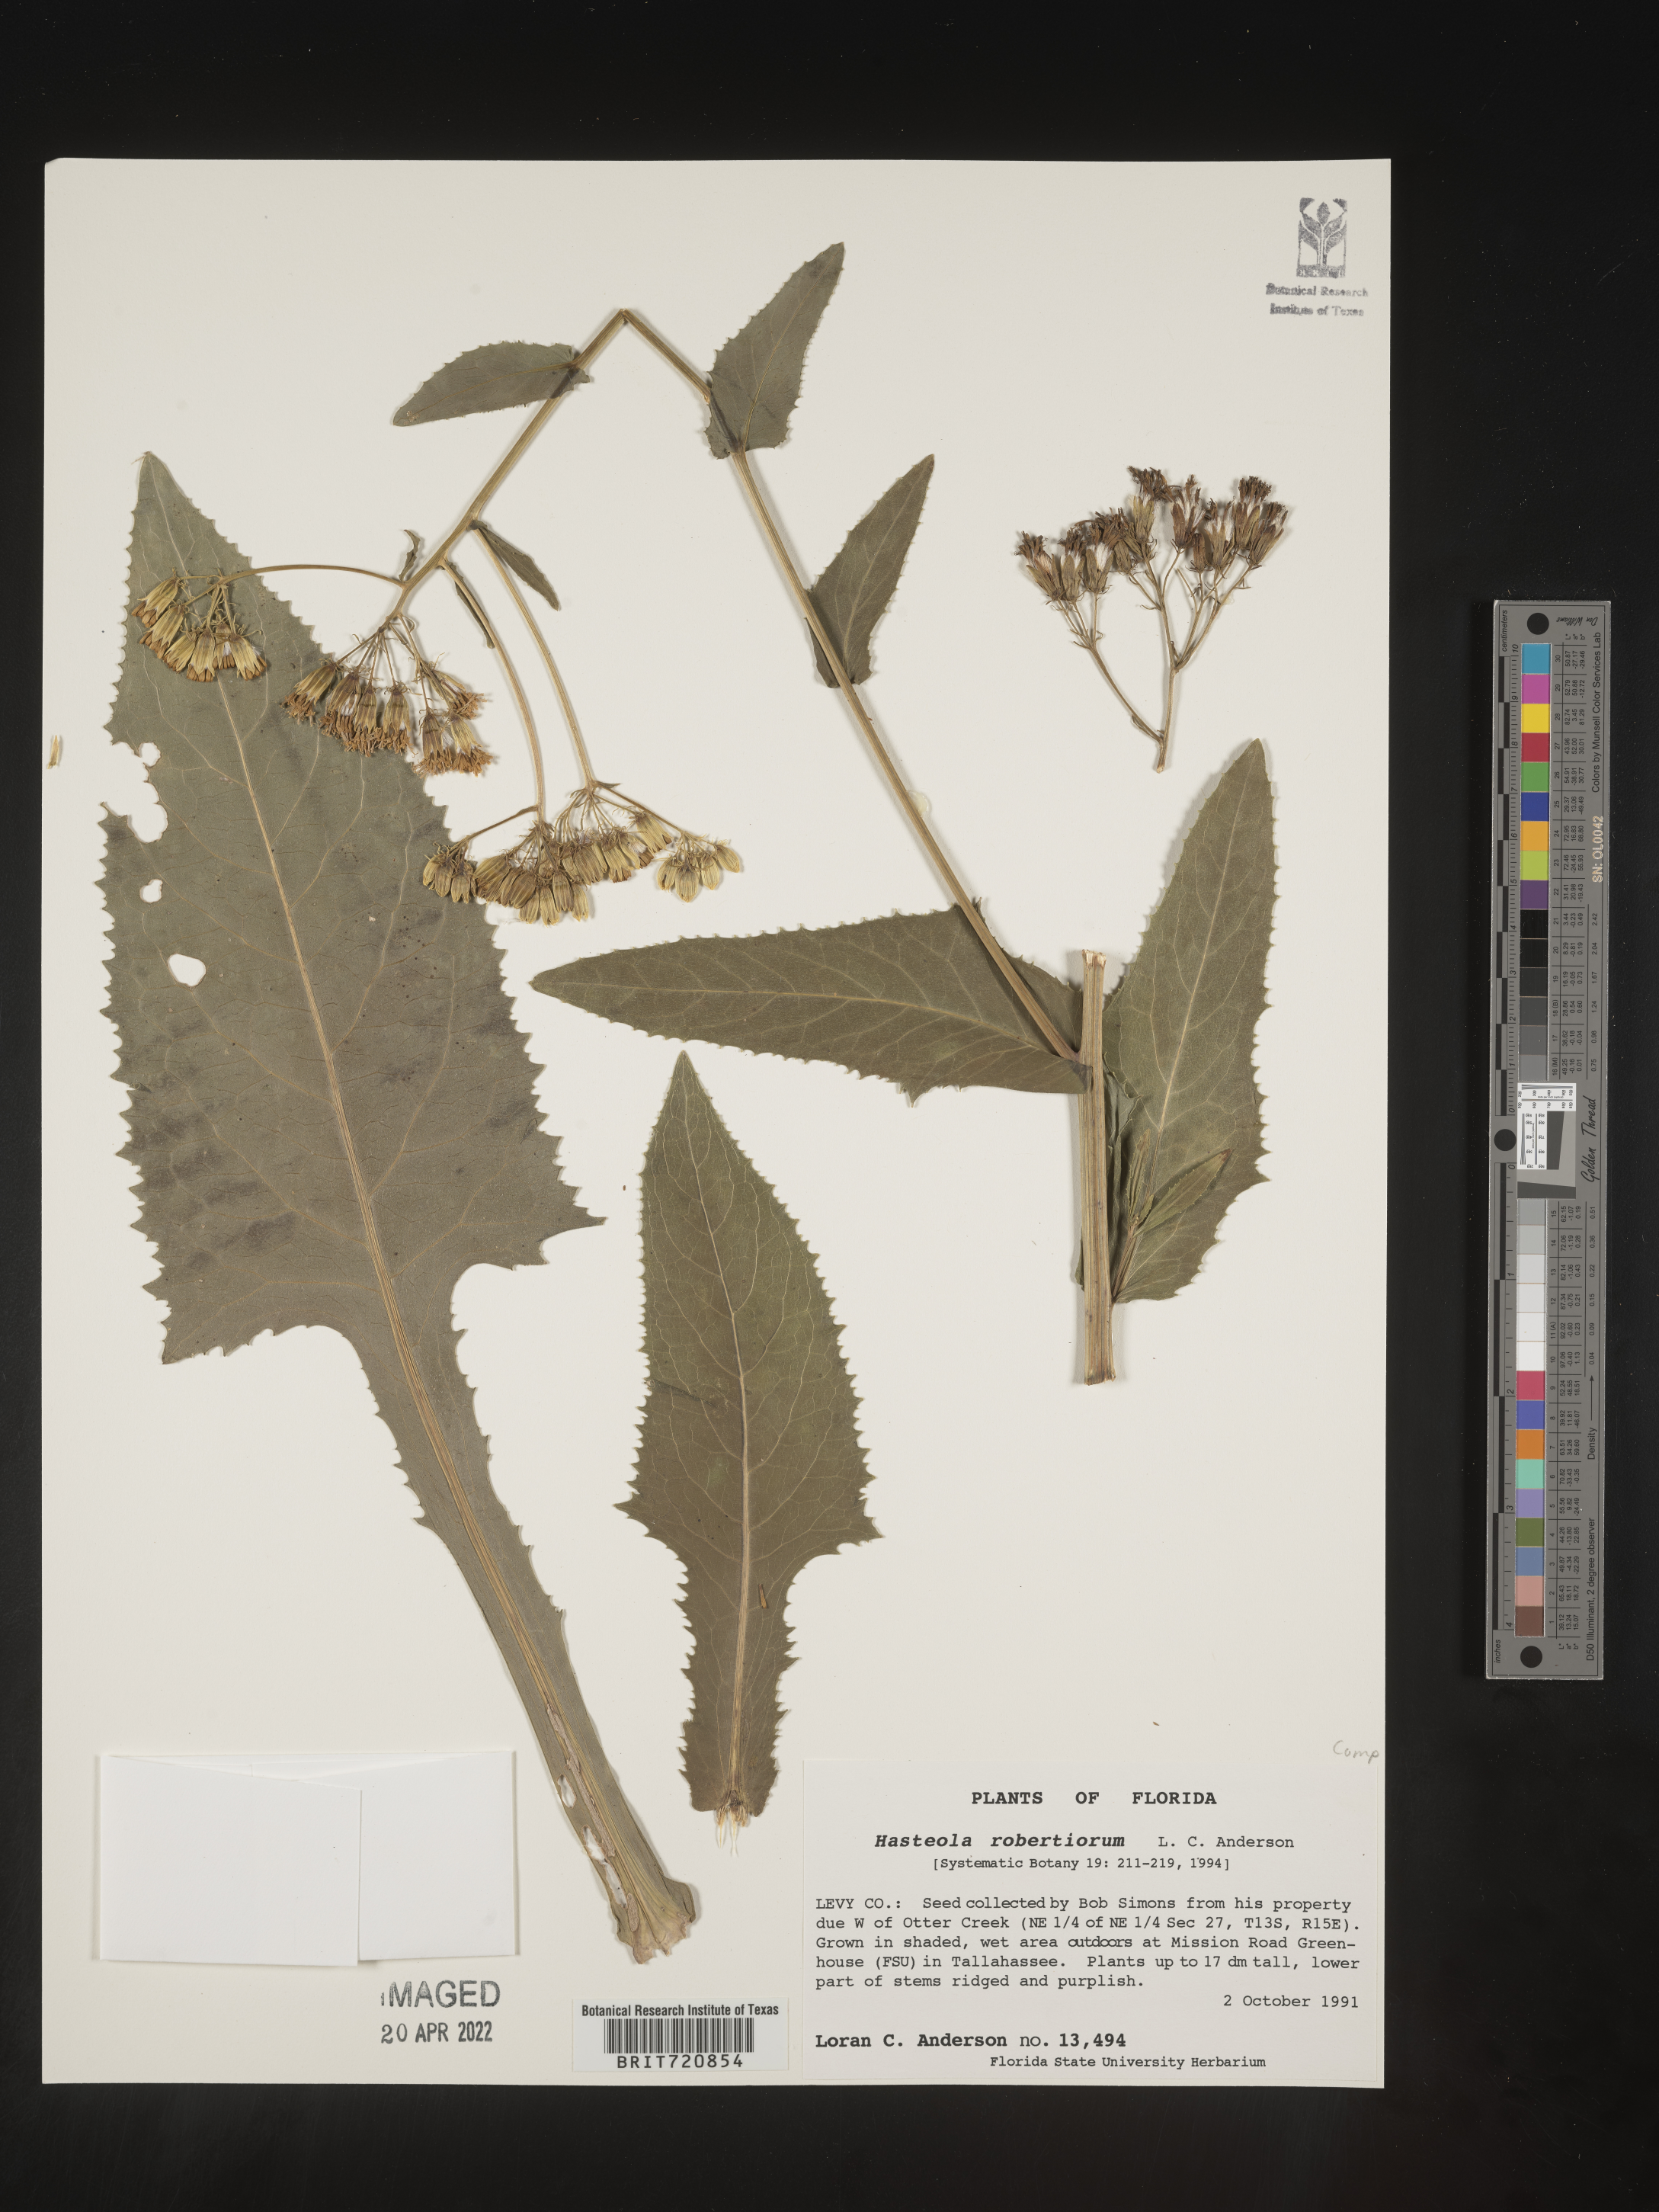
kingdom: Plantae
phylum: Tracheophyta
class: Magnoliopsida
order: Asterales
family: Asteraceae
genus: Hasteola
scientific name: Hasteola
